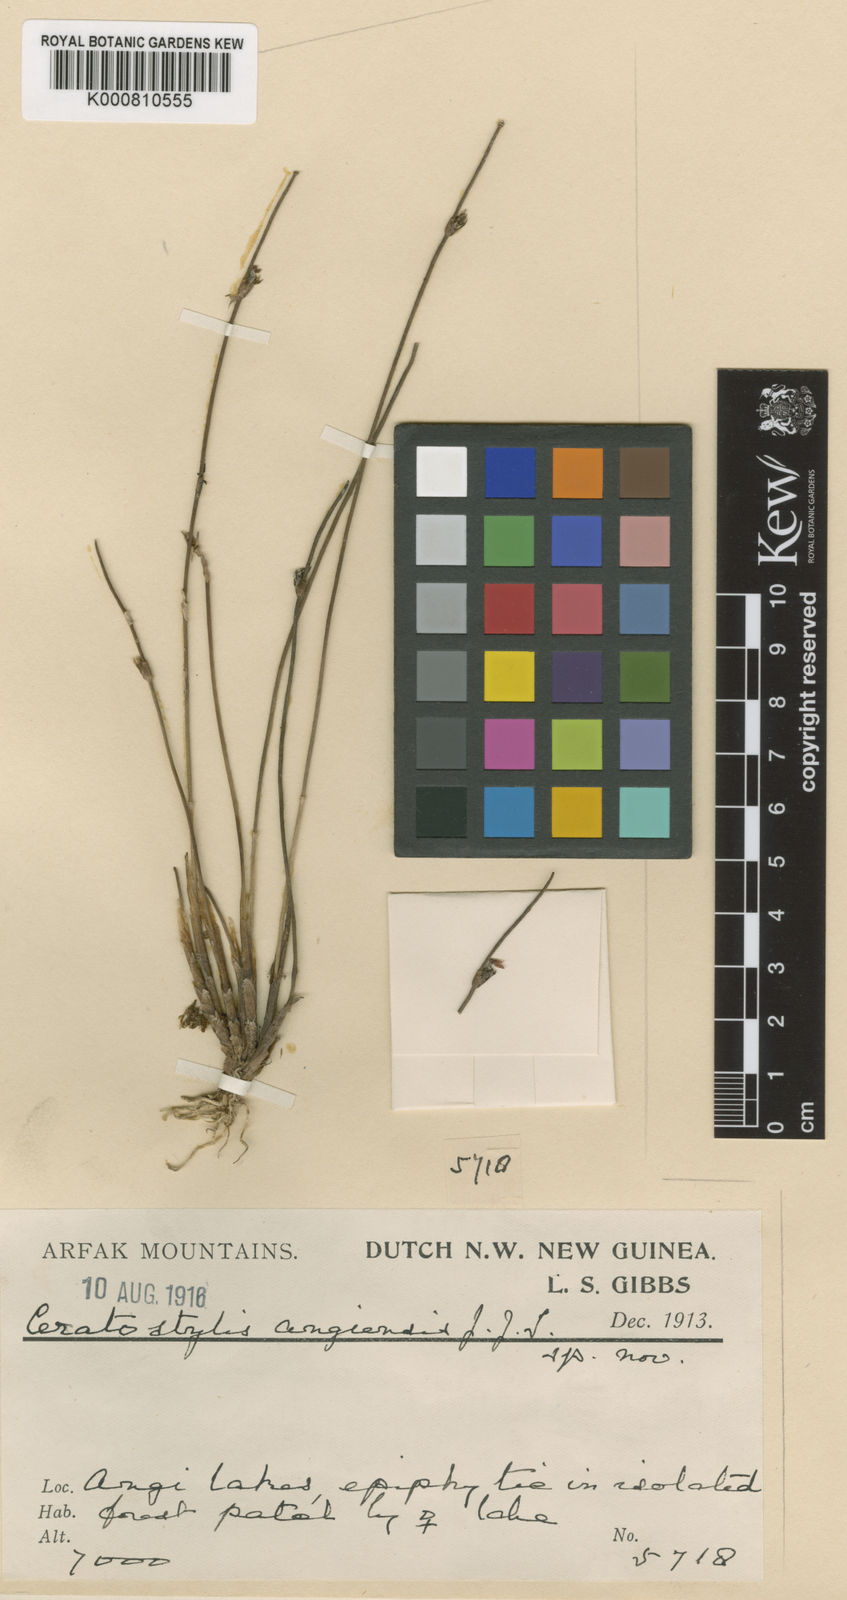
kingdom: Plantae
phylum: Tracheophyta
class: Liliopsida
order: Asparagales
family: Orchidaceae
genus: Ceratostylis
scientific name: Ceratostylis angiensis
